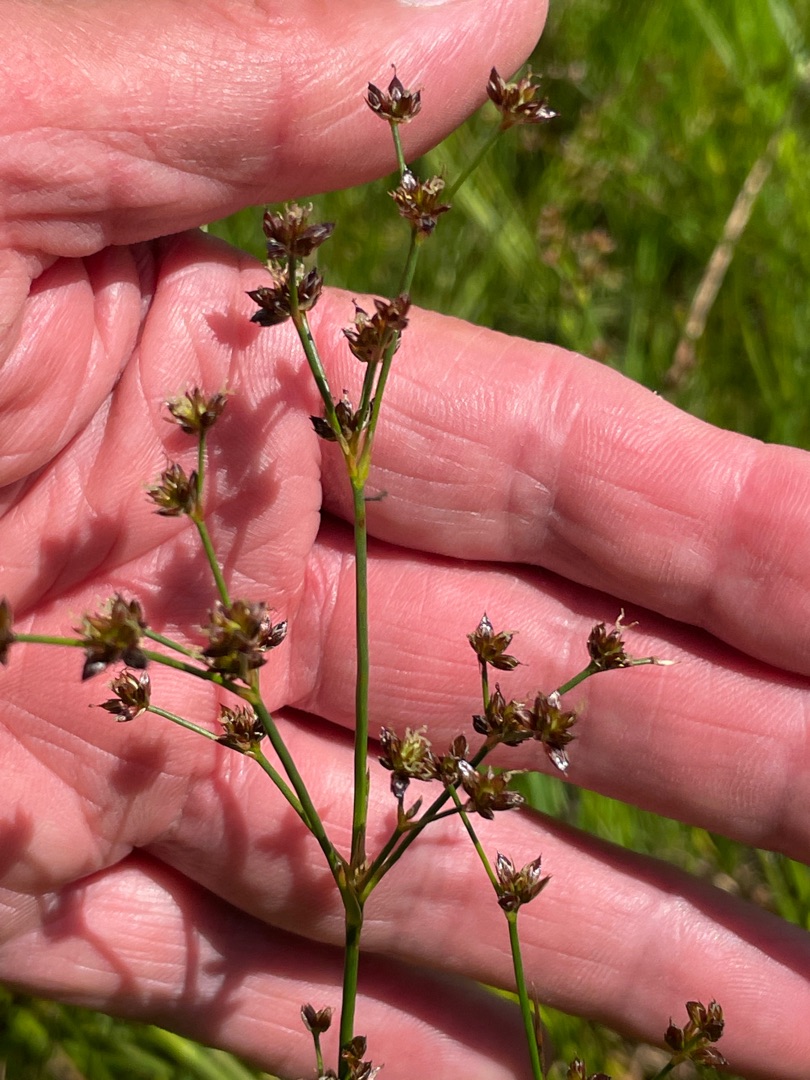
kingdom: Plantae
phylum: Tracheophyta
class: Liliopsida
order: Poales
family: Juncaceae
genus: Juncus
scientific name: Juncus articulatus
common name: Glanskapslet siv
